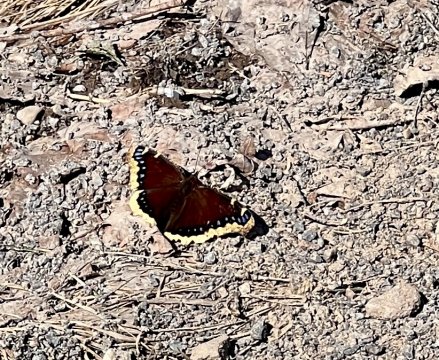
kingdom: Animalia
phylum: Arthropoda
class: Insecta
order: Lepidoptera
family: Nymphalidae
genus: Nymphalis
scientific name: Nymphalis antiopa
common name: Mourning Cloak
